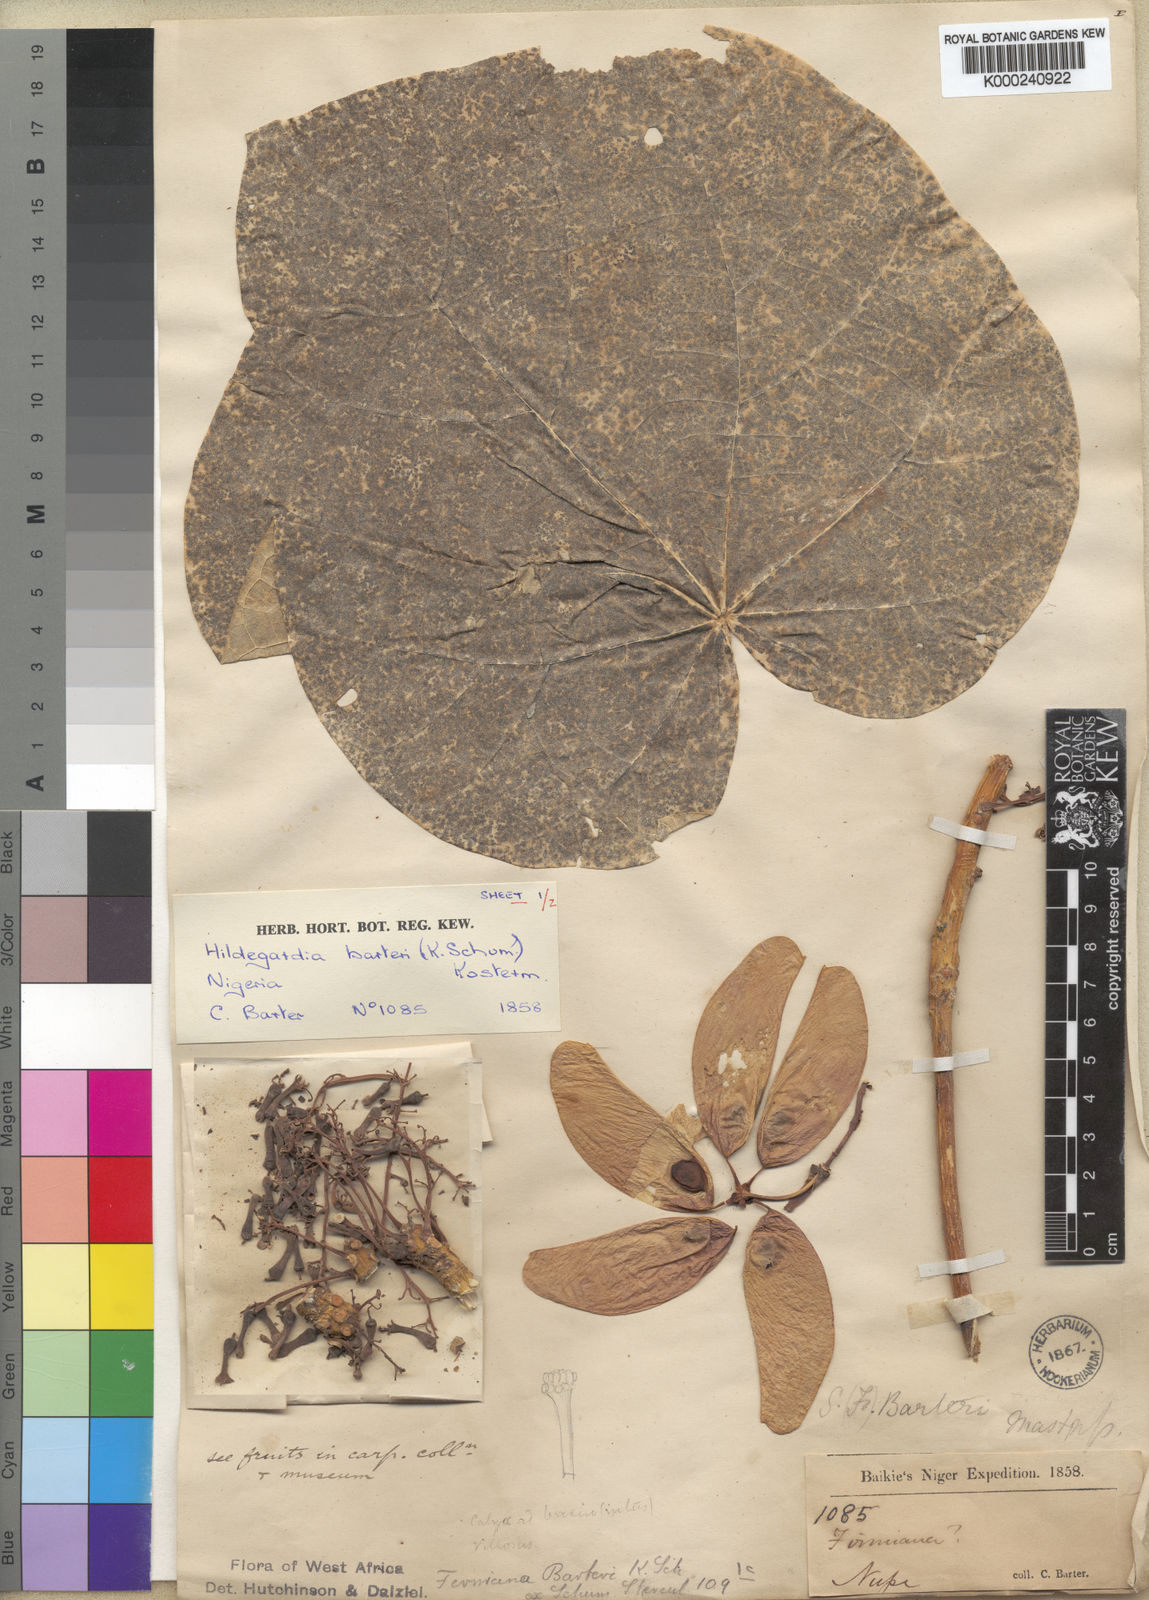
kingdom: Plantae
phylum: Tracheophyta
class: Magnoliopsida
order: Malvales
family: Malvaceae
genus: Hildegardia
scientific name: Hildegardia barteri
